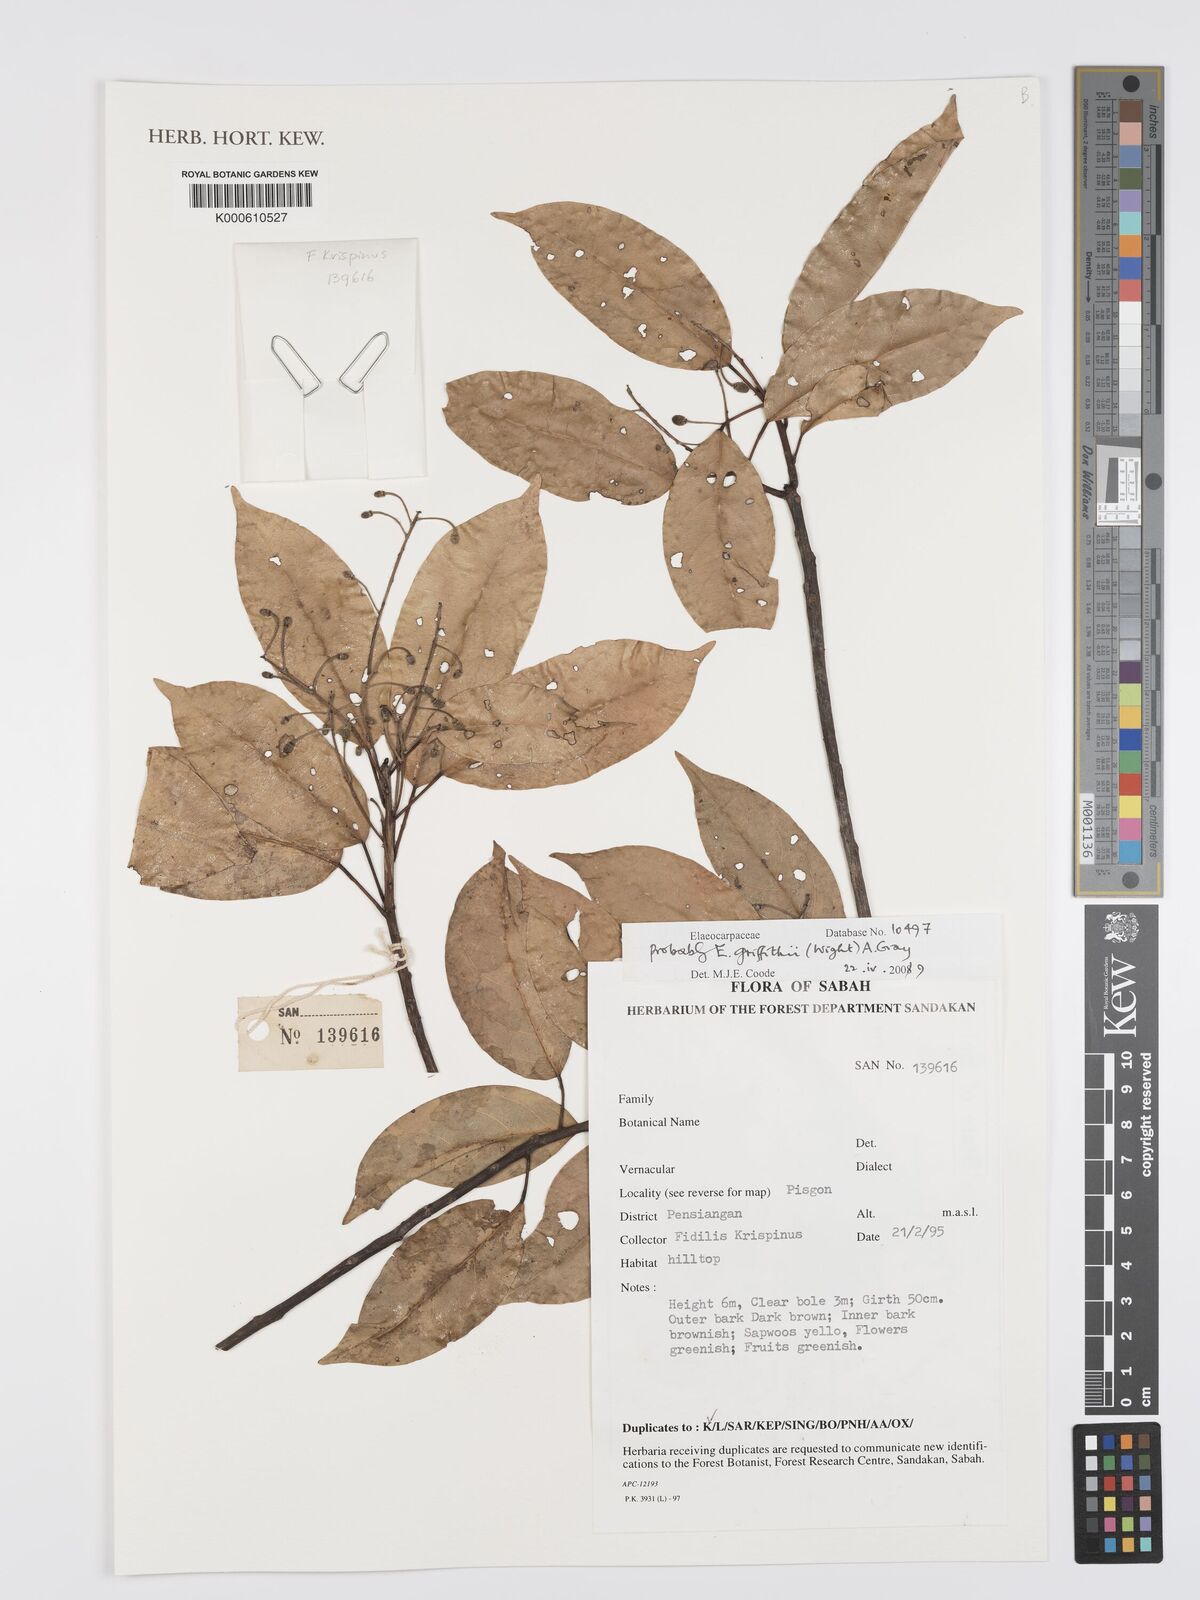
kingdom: Plantae
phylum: Tracheophyta
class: Magnoliopsida
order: Oxalidales
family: Elaeocarpaceae
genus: Elaeocarpus
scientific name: Elaeocarpus
